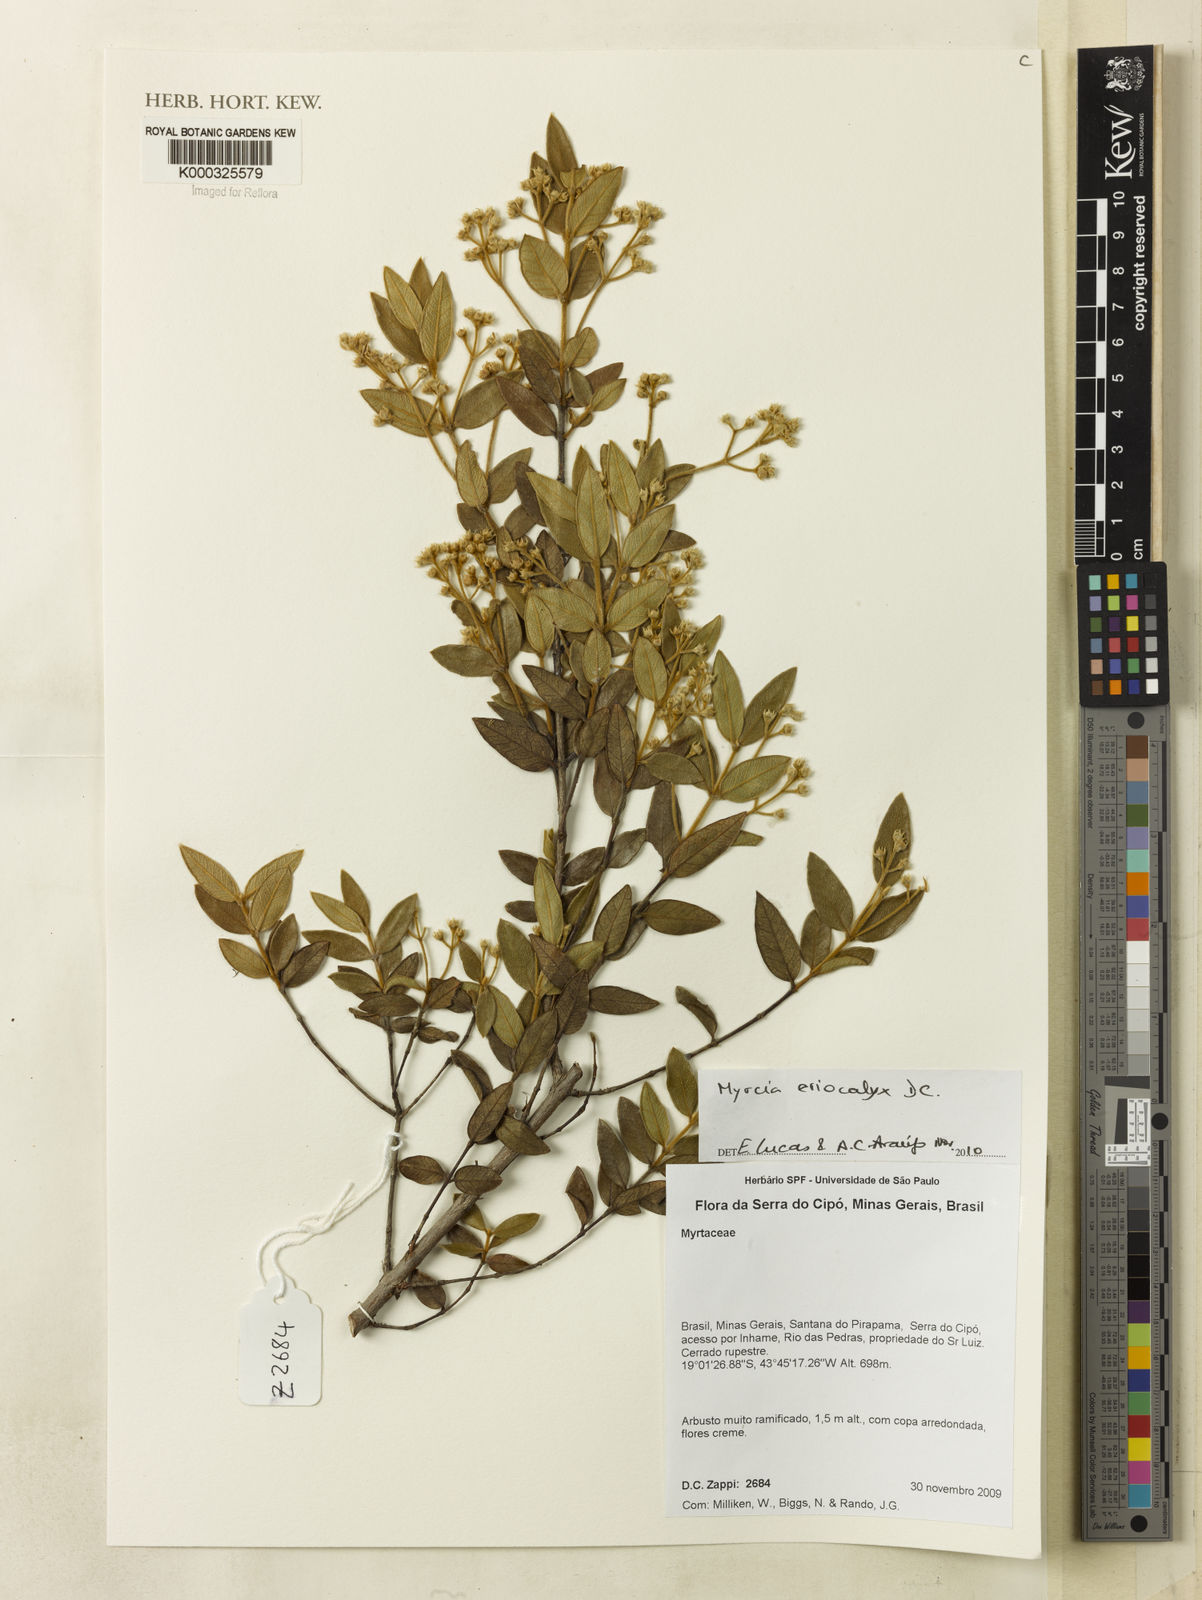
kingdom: Plantae
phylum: Tracheophyta
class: Magnoliopsida
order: Myrtales
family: Myrtaceae
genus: Myrcia
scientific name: Myrcia eriocalyx
